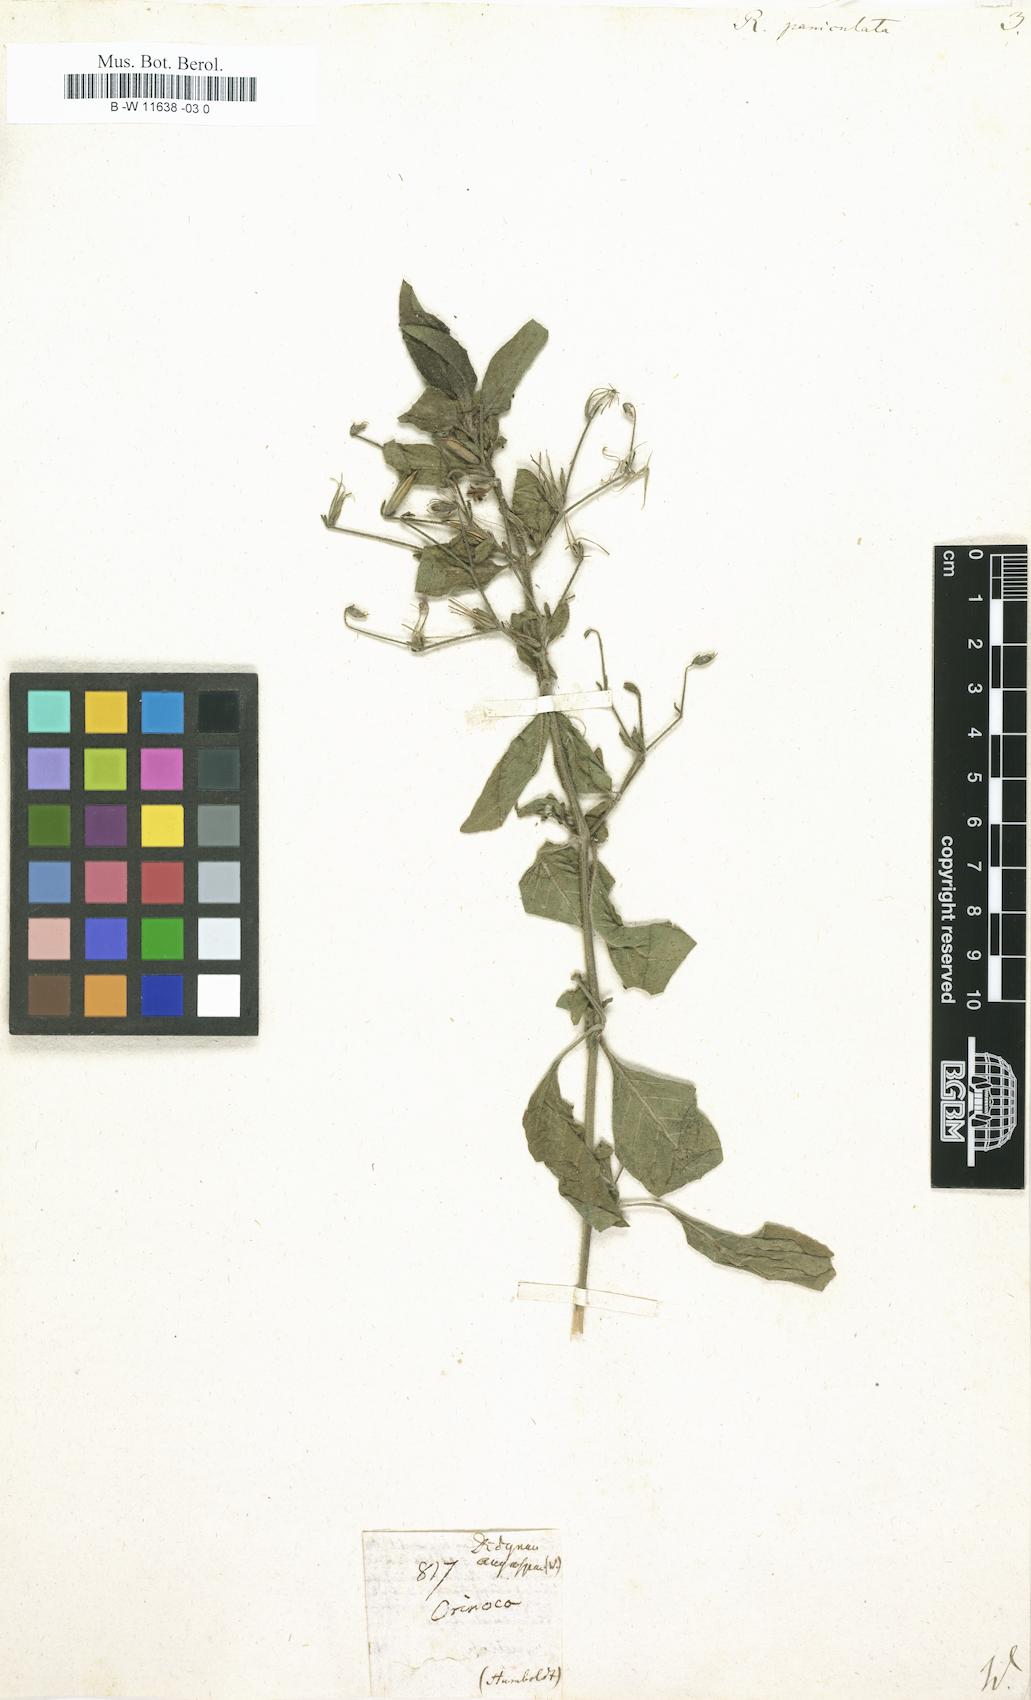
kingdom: Plantae
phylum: Tracheophyta
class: Magnoliopsida
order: Lamiales
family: Acanthaceae
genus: Ruellia
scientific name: Ruellia paniculata
